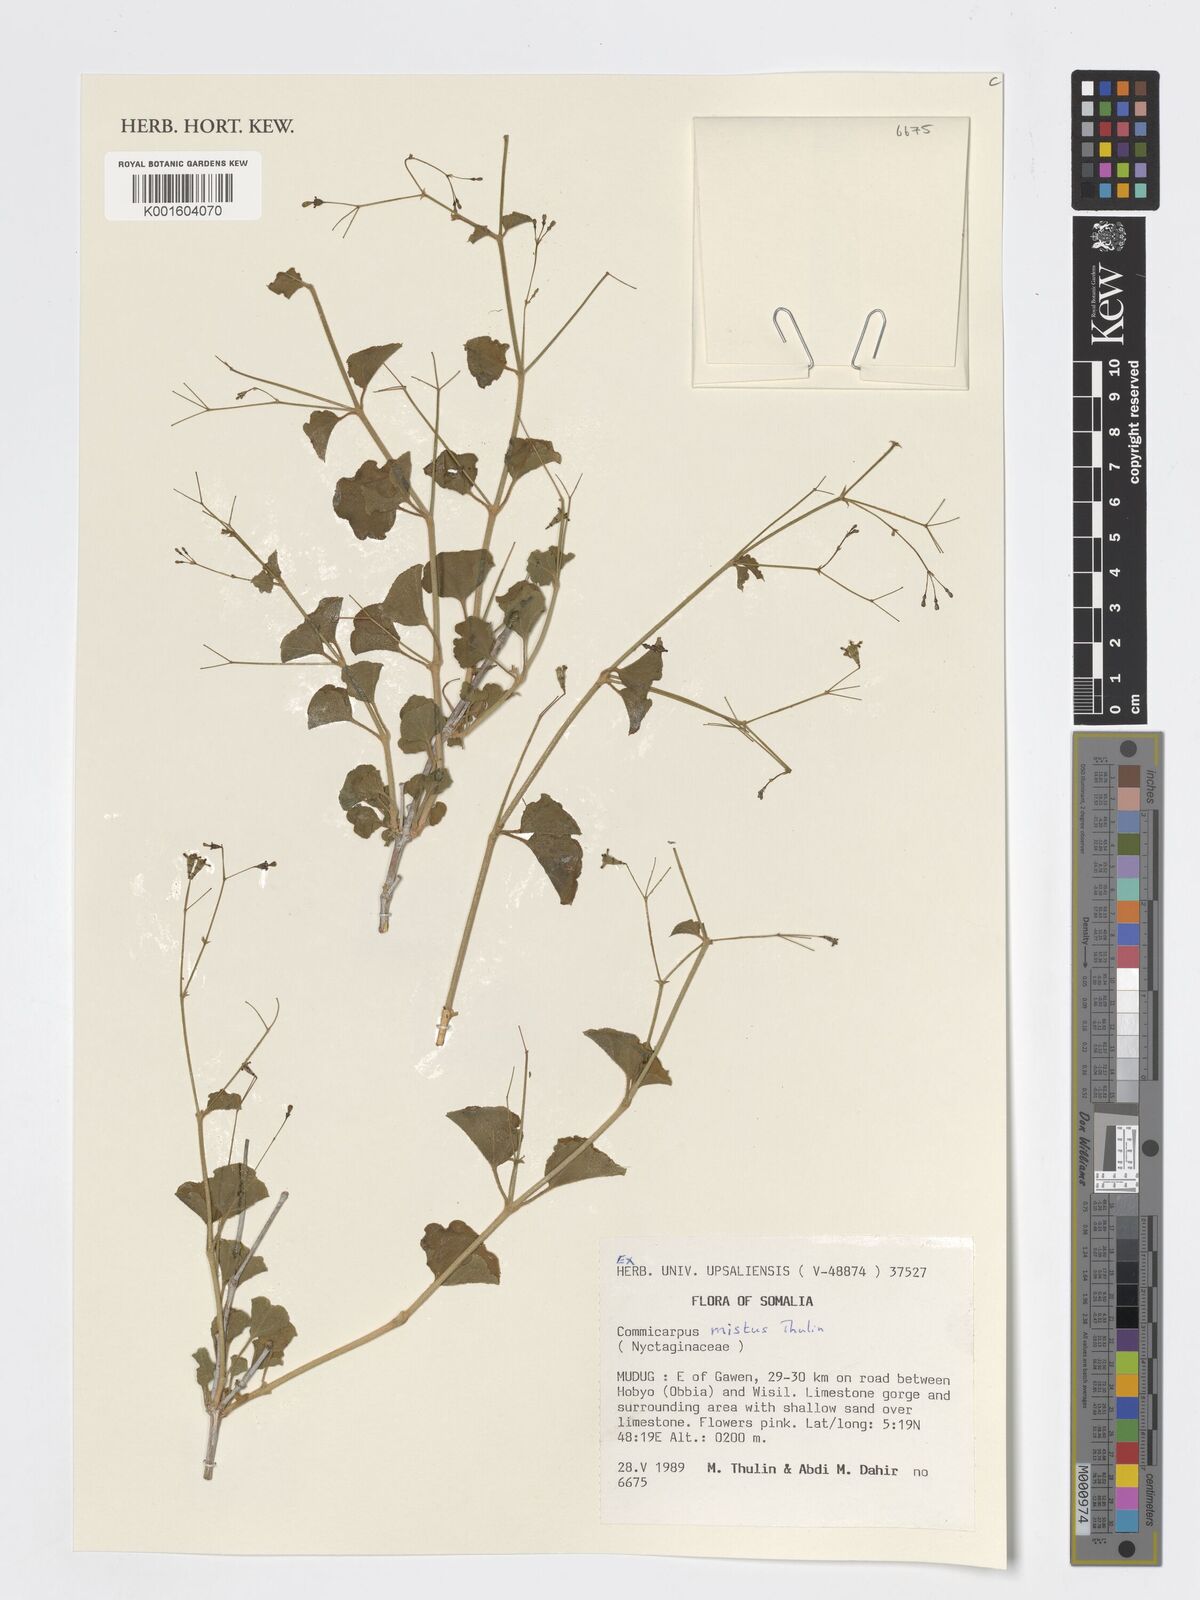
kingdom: Plantae
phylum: Tracheophyta
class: Magnoliopsida
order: Caryophyllales
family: Nyctaginaceae
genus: Commicarpus
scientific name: Commicarpus mistus
